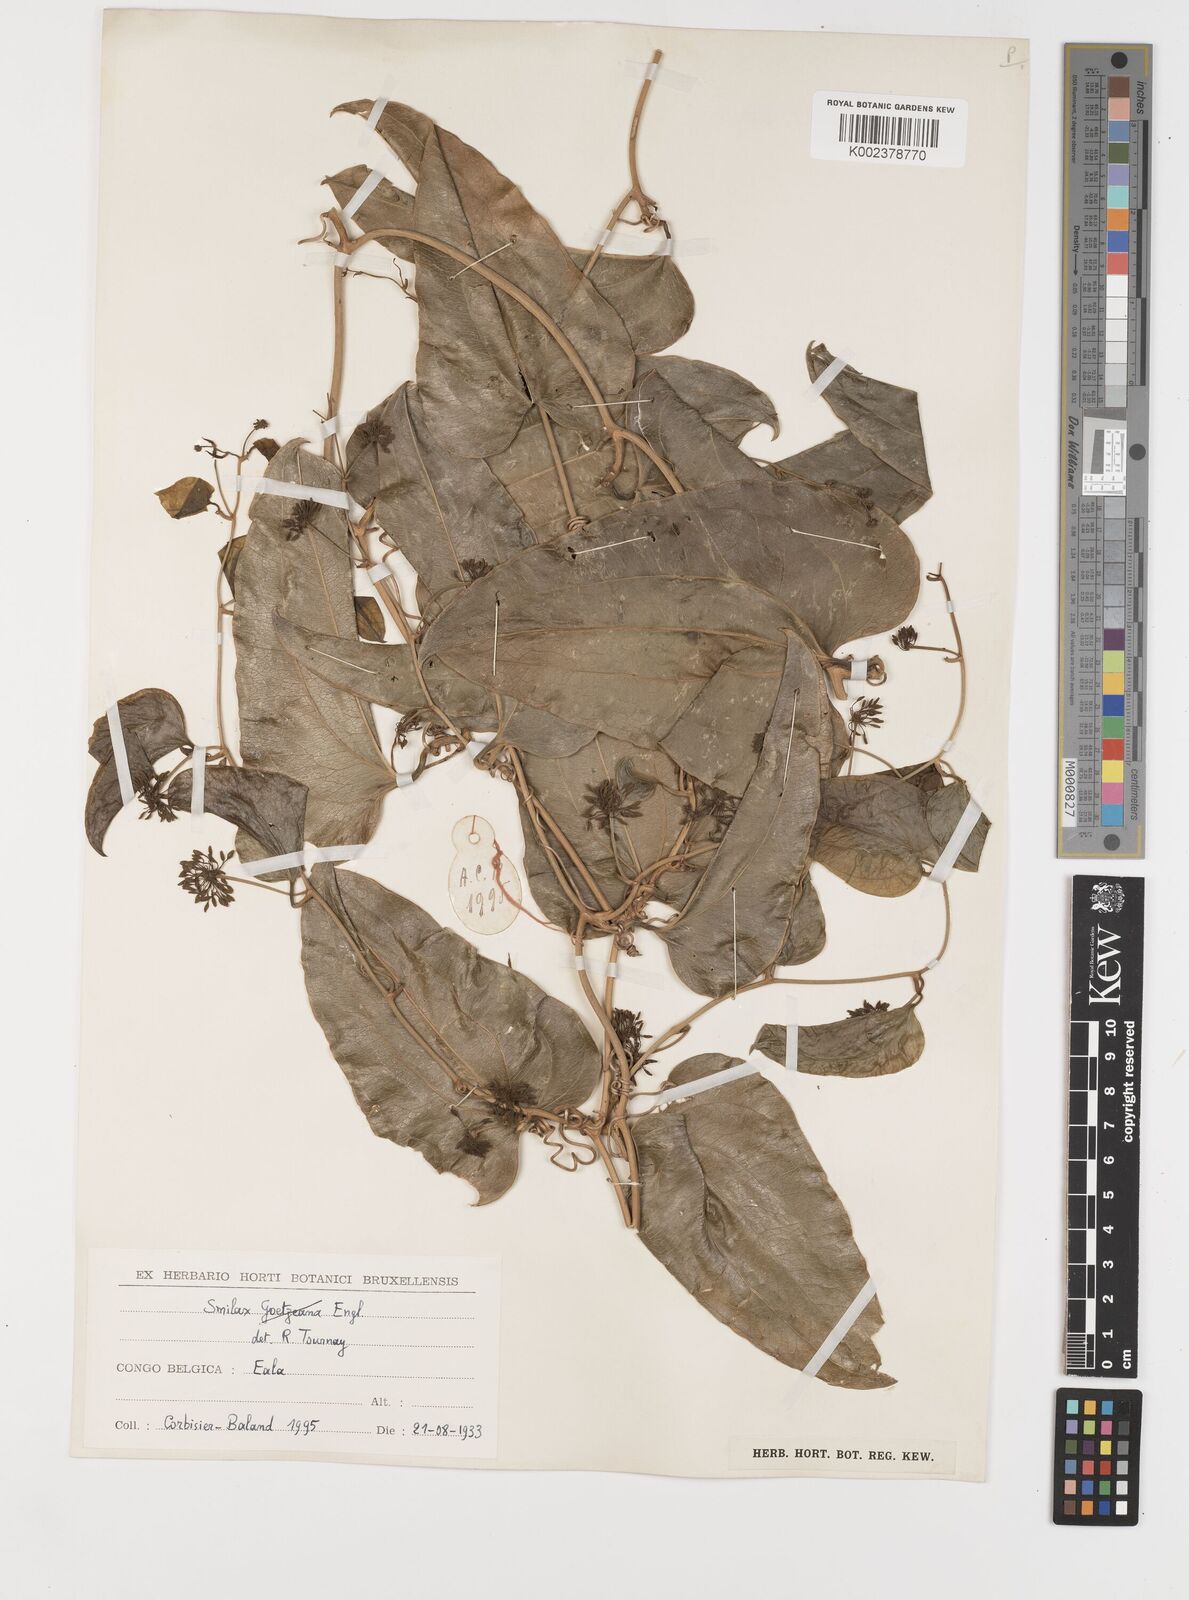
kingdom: Plantae
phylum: Tracheophyta
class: Liliopsida
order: Liliales
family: Smilacaceae
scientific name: Smilacaceae
